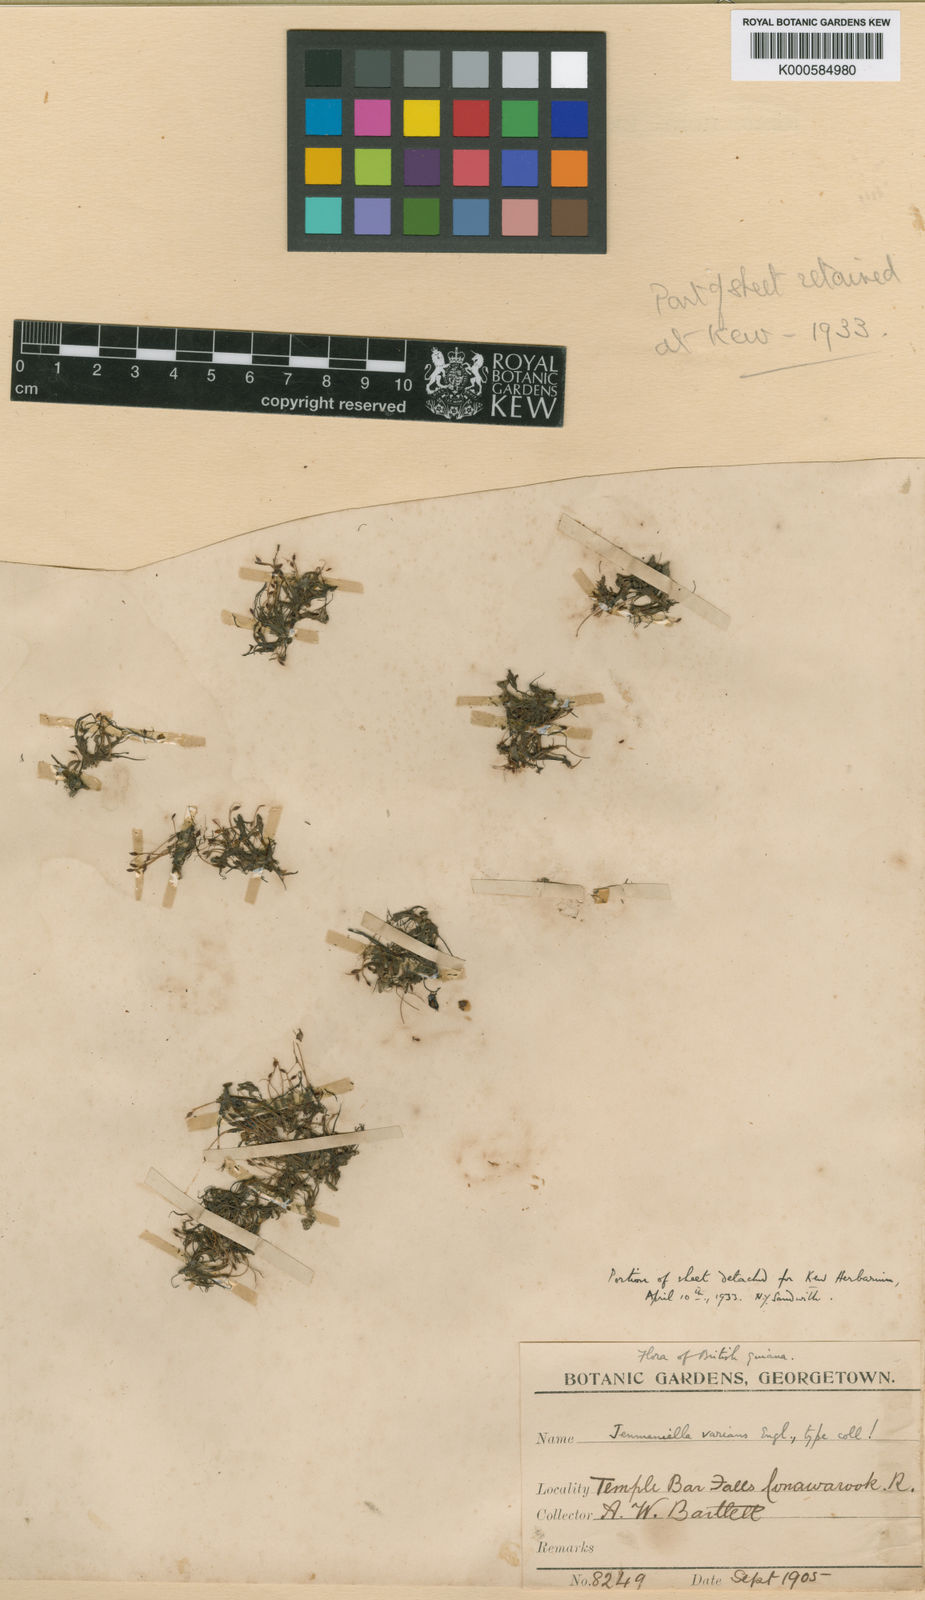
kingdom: Plantae
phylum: Tracheophyta
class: Magnoliopsida
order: Malpighiales
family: Podostemaceae
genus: Lophogyne
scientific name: Lophogyne varians
